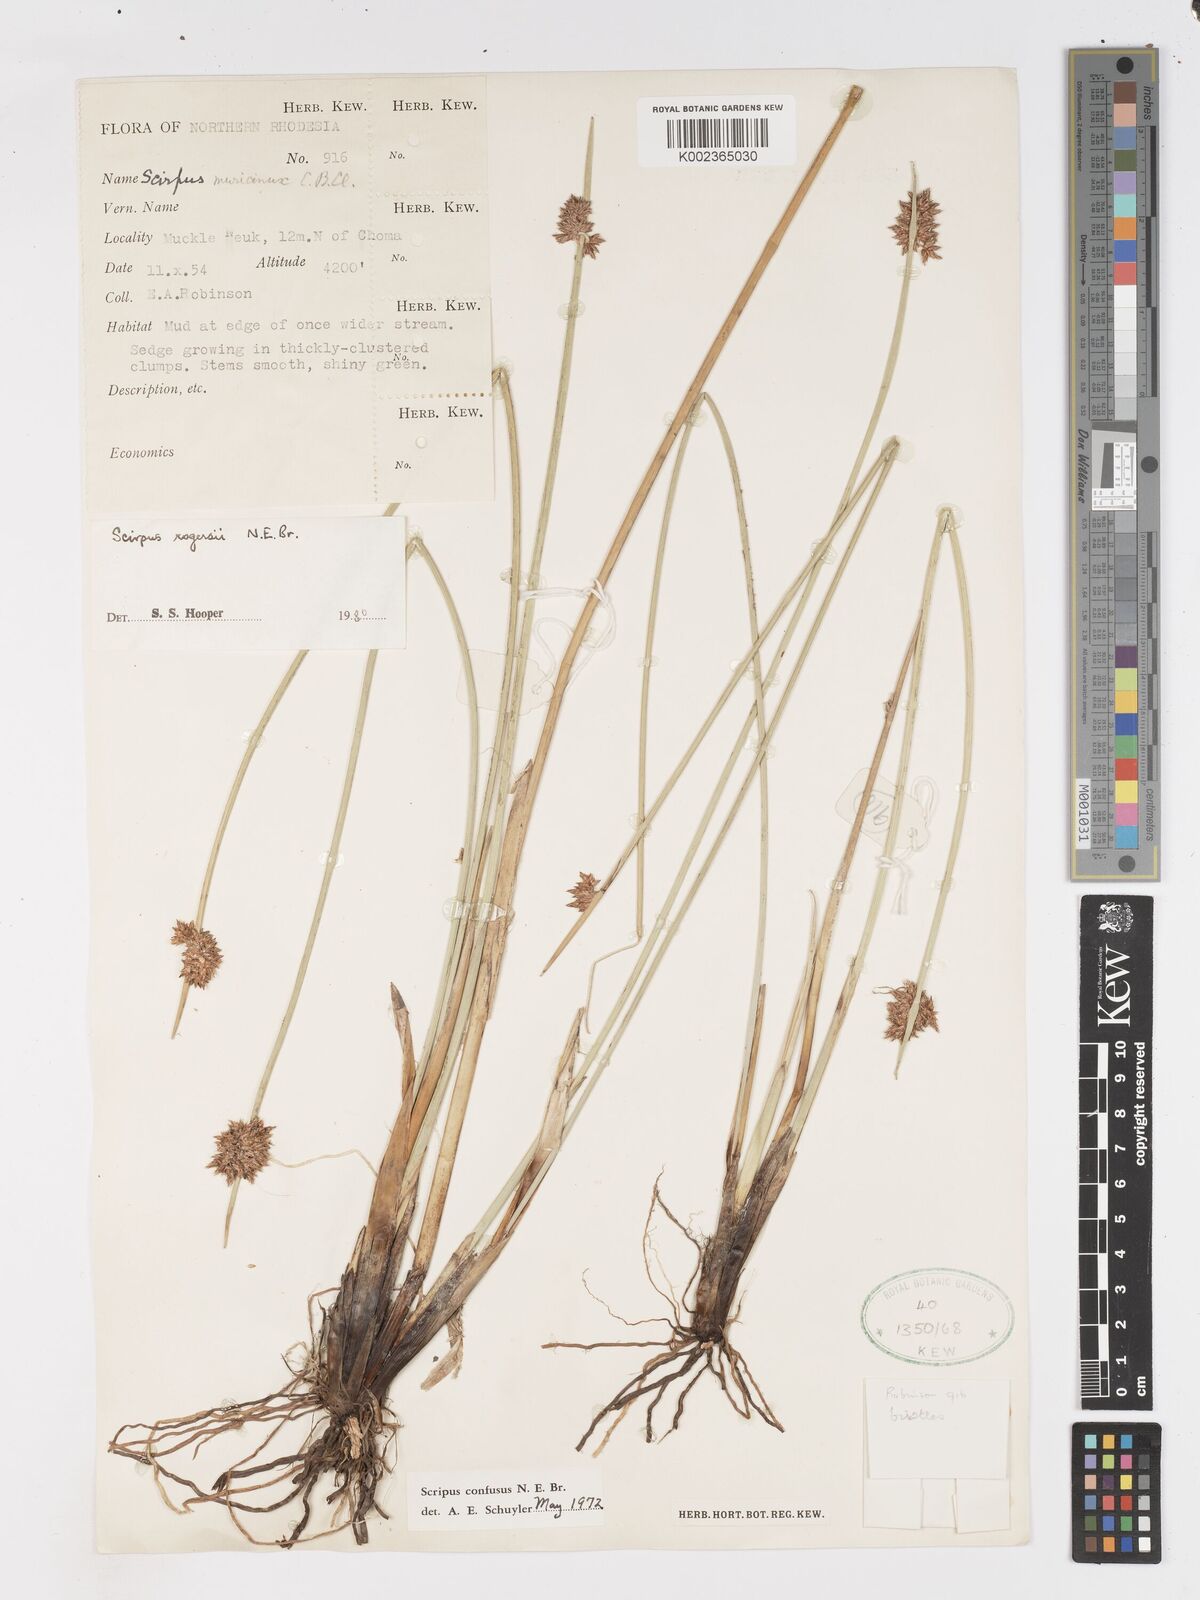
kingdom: Plantae
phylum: Tracheophyta
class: Liliopsida
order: Poales
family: Cyperaceae
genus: Schoenoplectiella
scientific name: Schoenoplectiella rogersii
